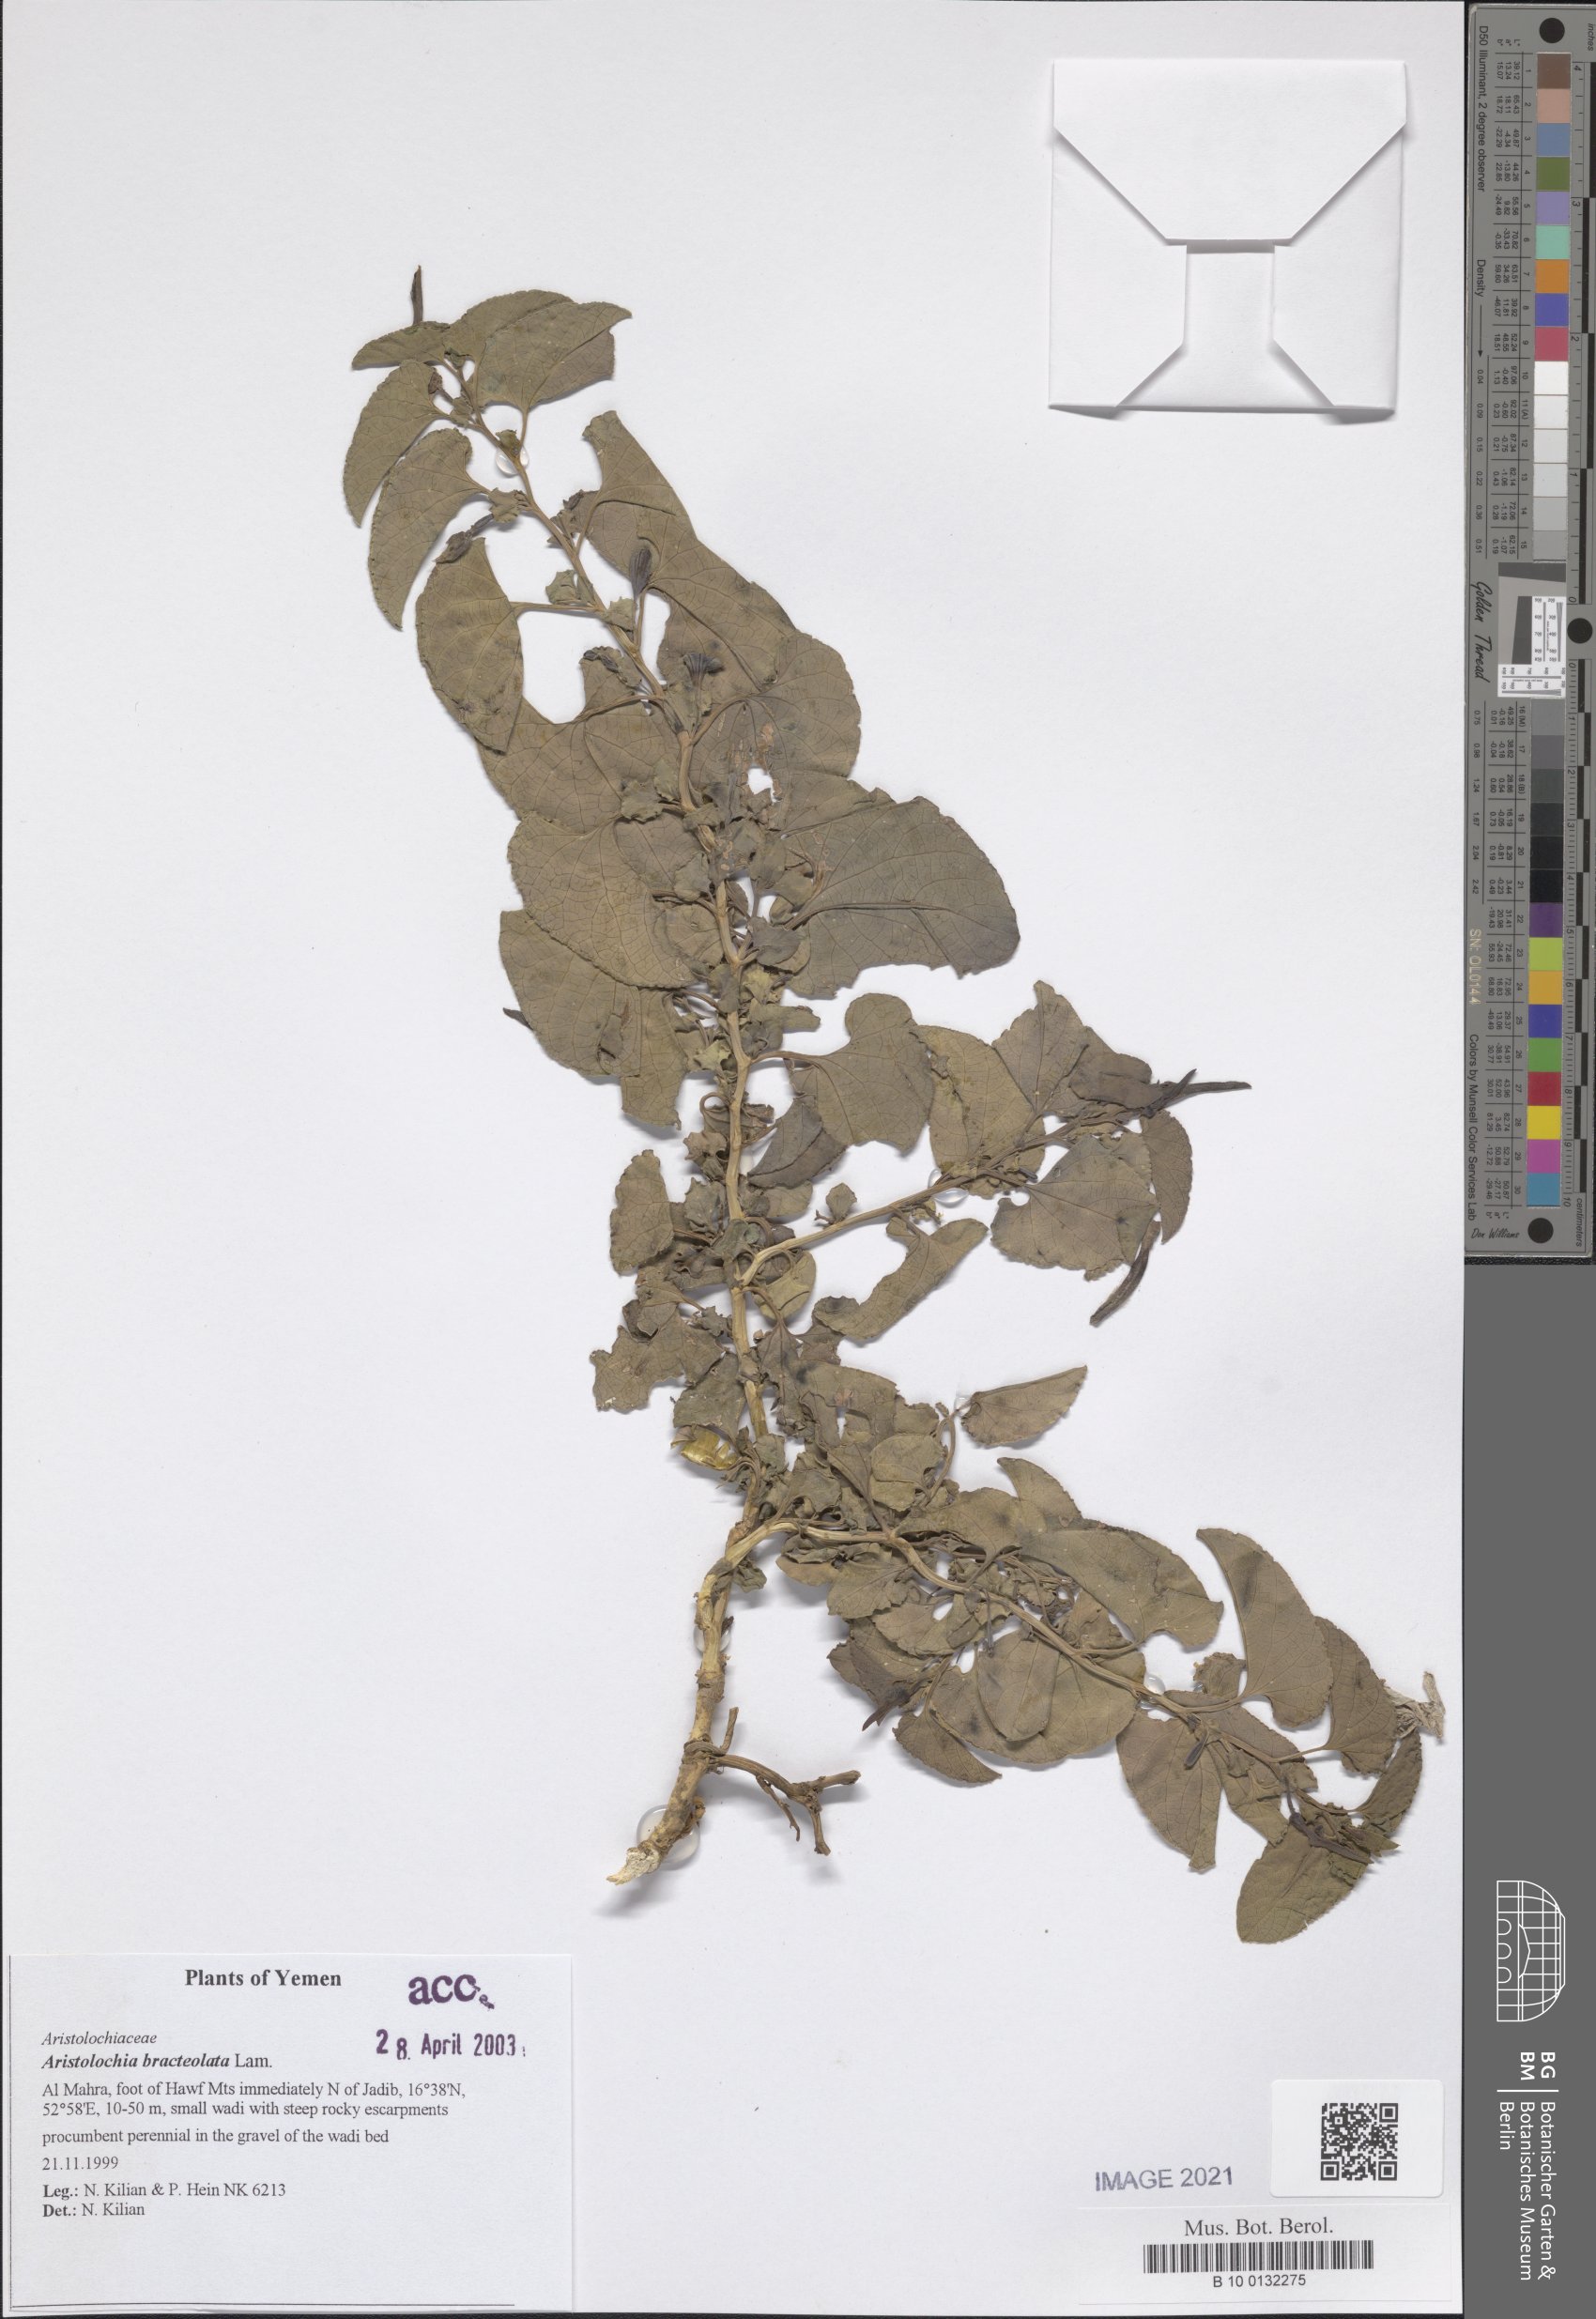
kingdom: Plantae
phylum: Tracheophyta
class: Magnoliopsida
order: Piperales
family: Aristolochiaceae
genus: Aristolochia
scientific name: Aristolochia bracteolata
